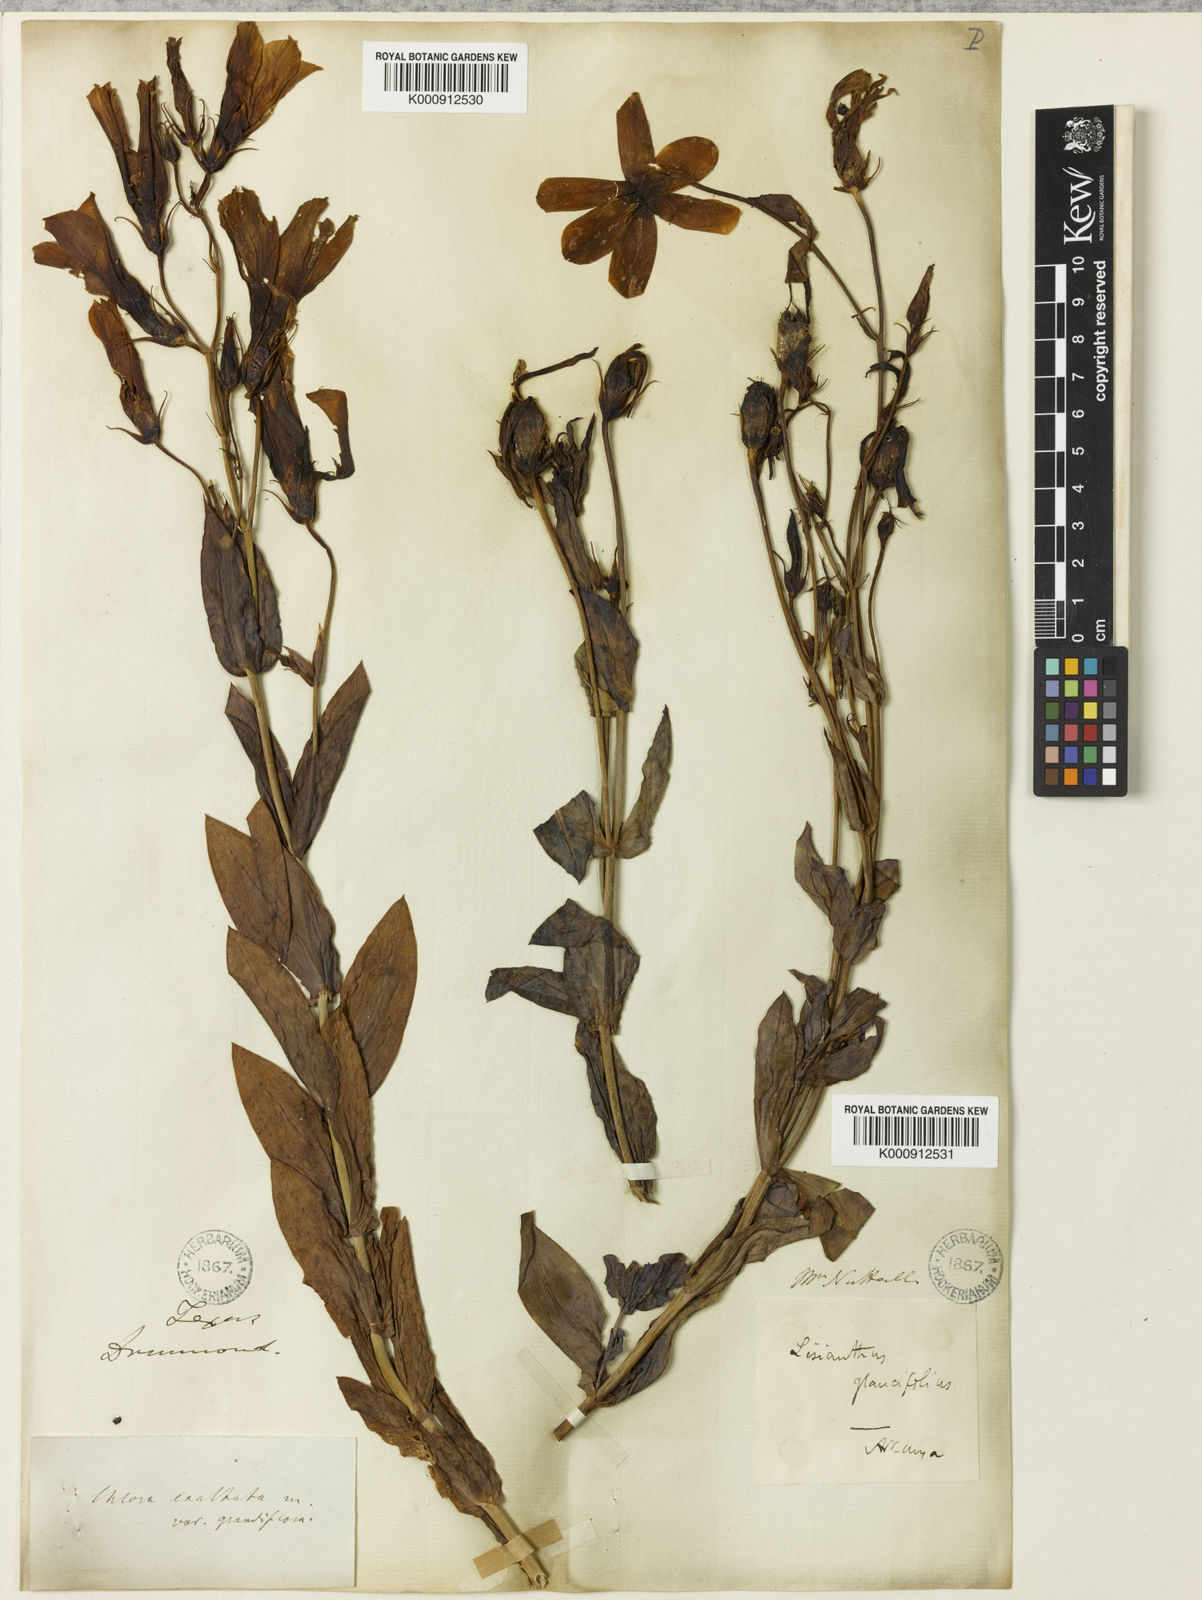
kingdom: Plantae
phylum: Tracheophyta
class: Magnoliopsida
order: Gentianales
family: Gentianaceae
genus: Eustoma
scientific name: Eustoma
